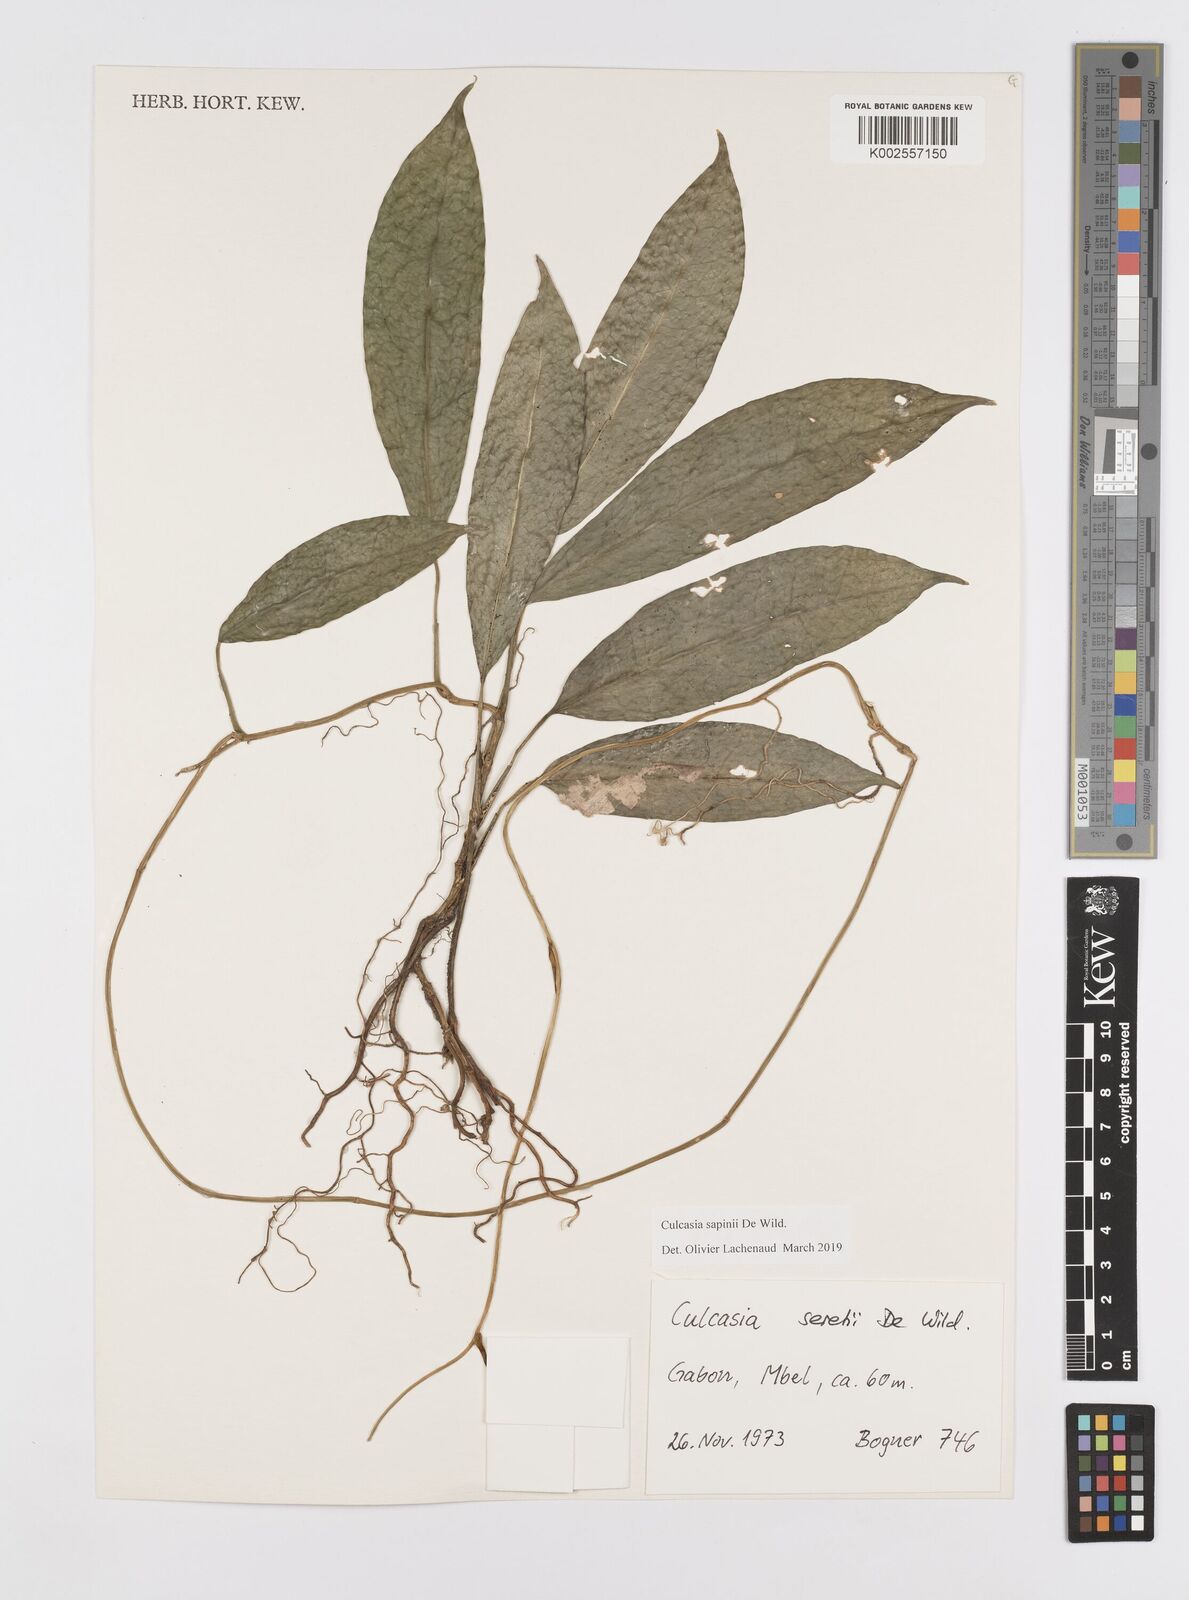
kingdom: Plantae
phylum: Tracheophyta
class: Liliopsida
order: Alismatales
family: Araceae
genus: Culcasia
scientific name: Culcasia seretii
